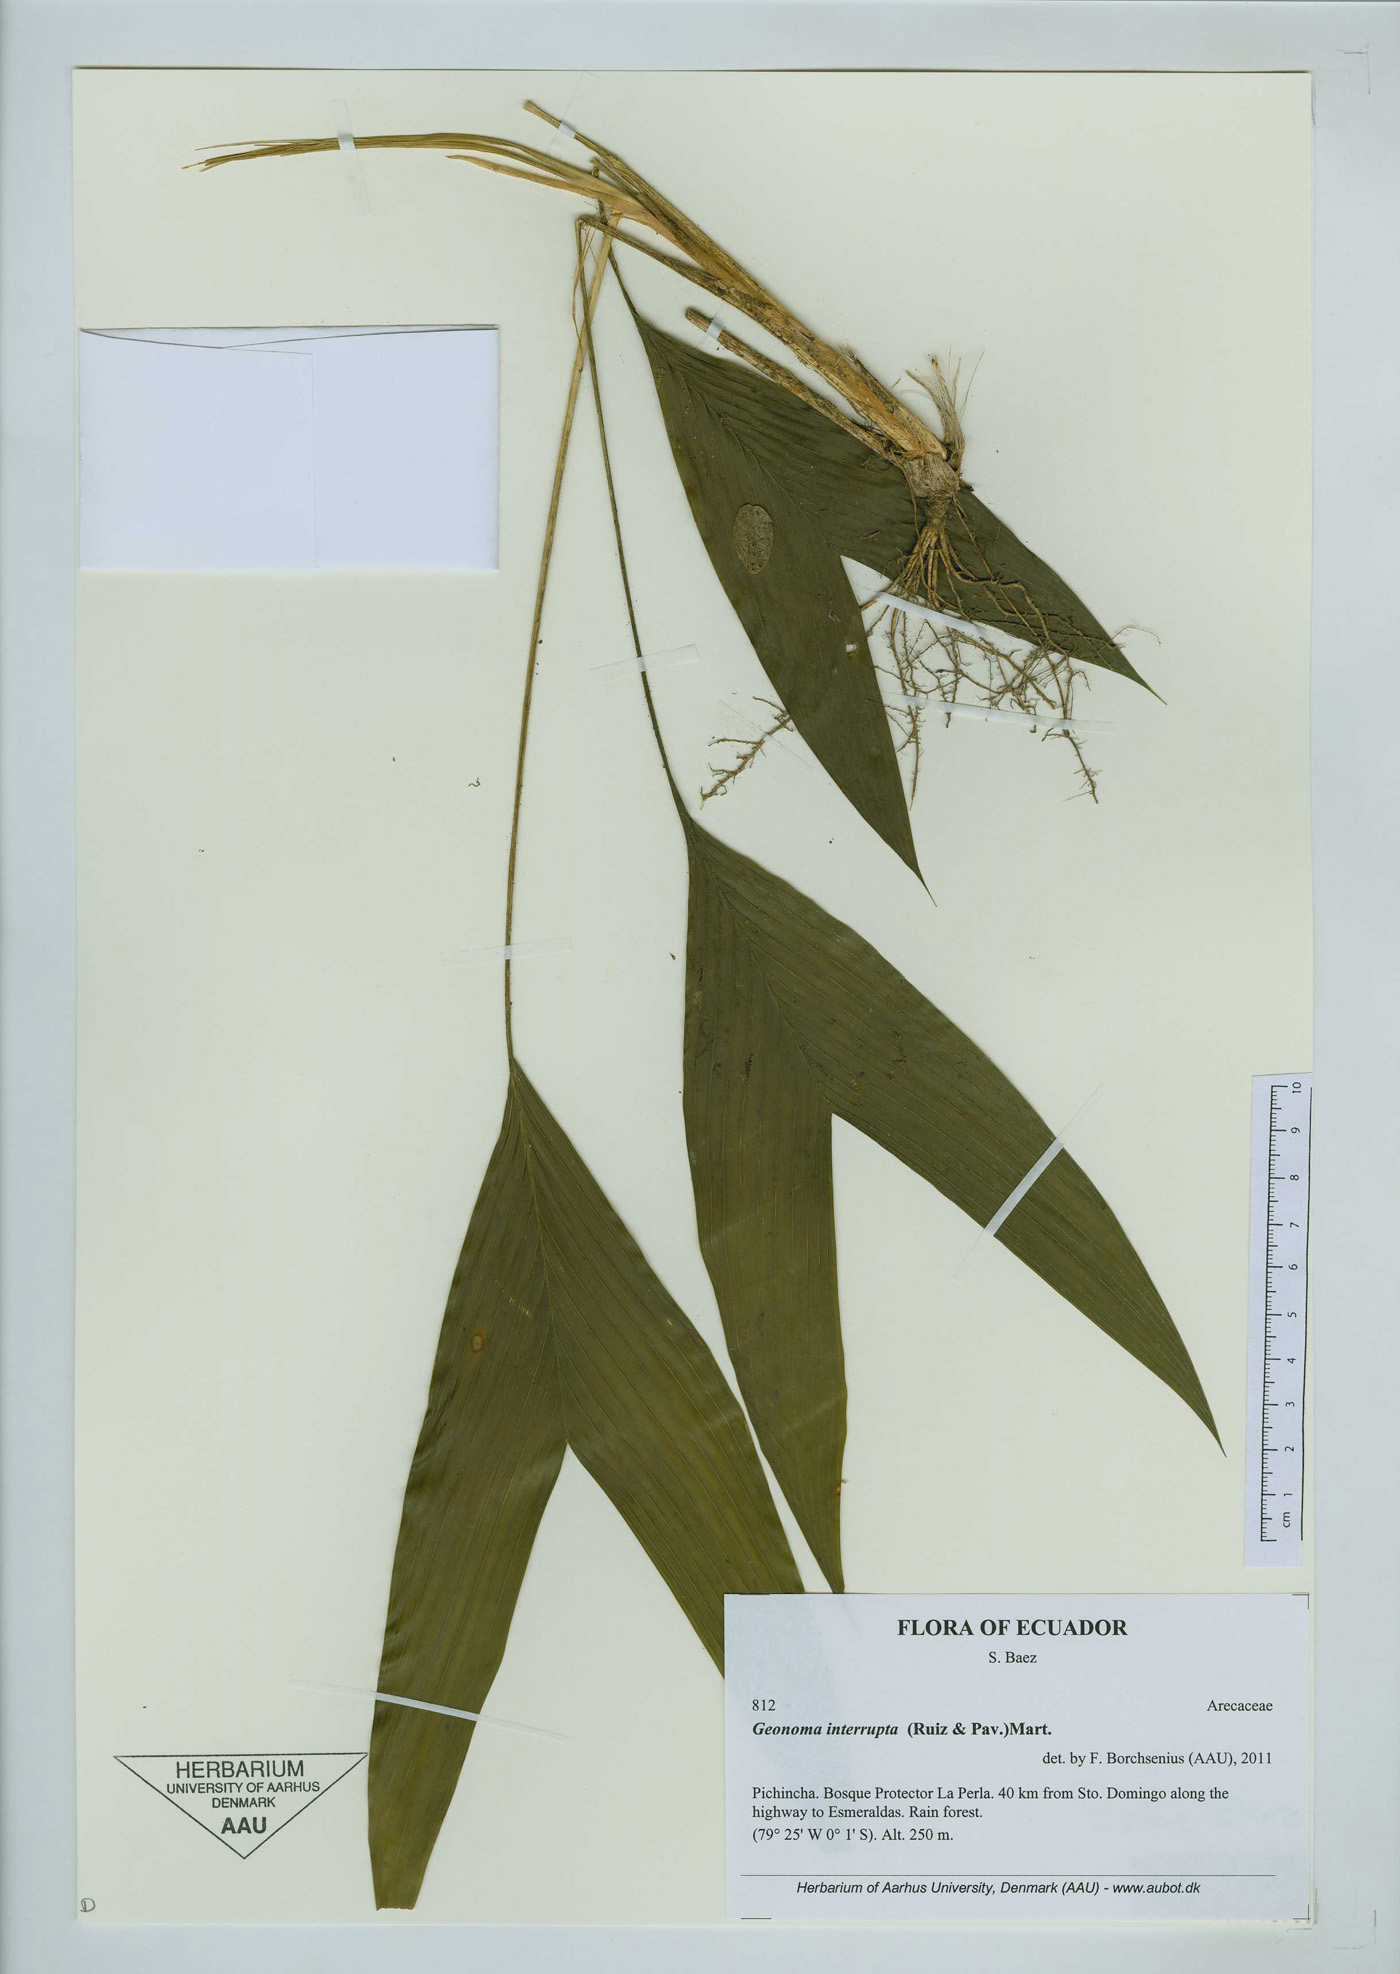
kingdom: Plantae
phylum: Tracheophyta
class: Liliopsida
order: Arecales
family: Arecaceae
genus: Geonoma
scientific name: Geonoma interrupta
